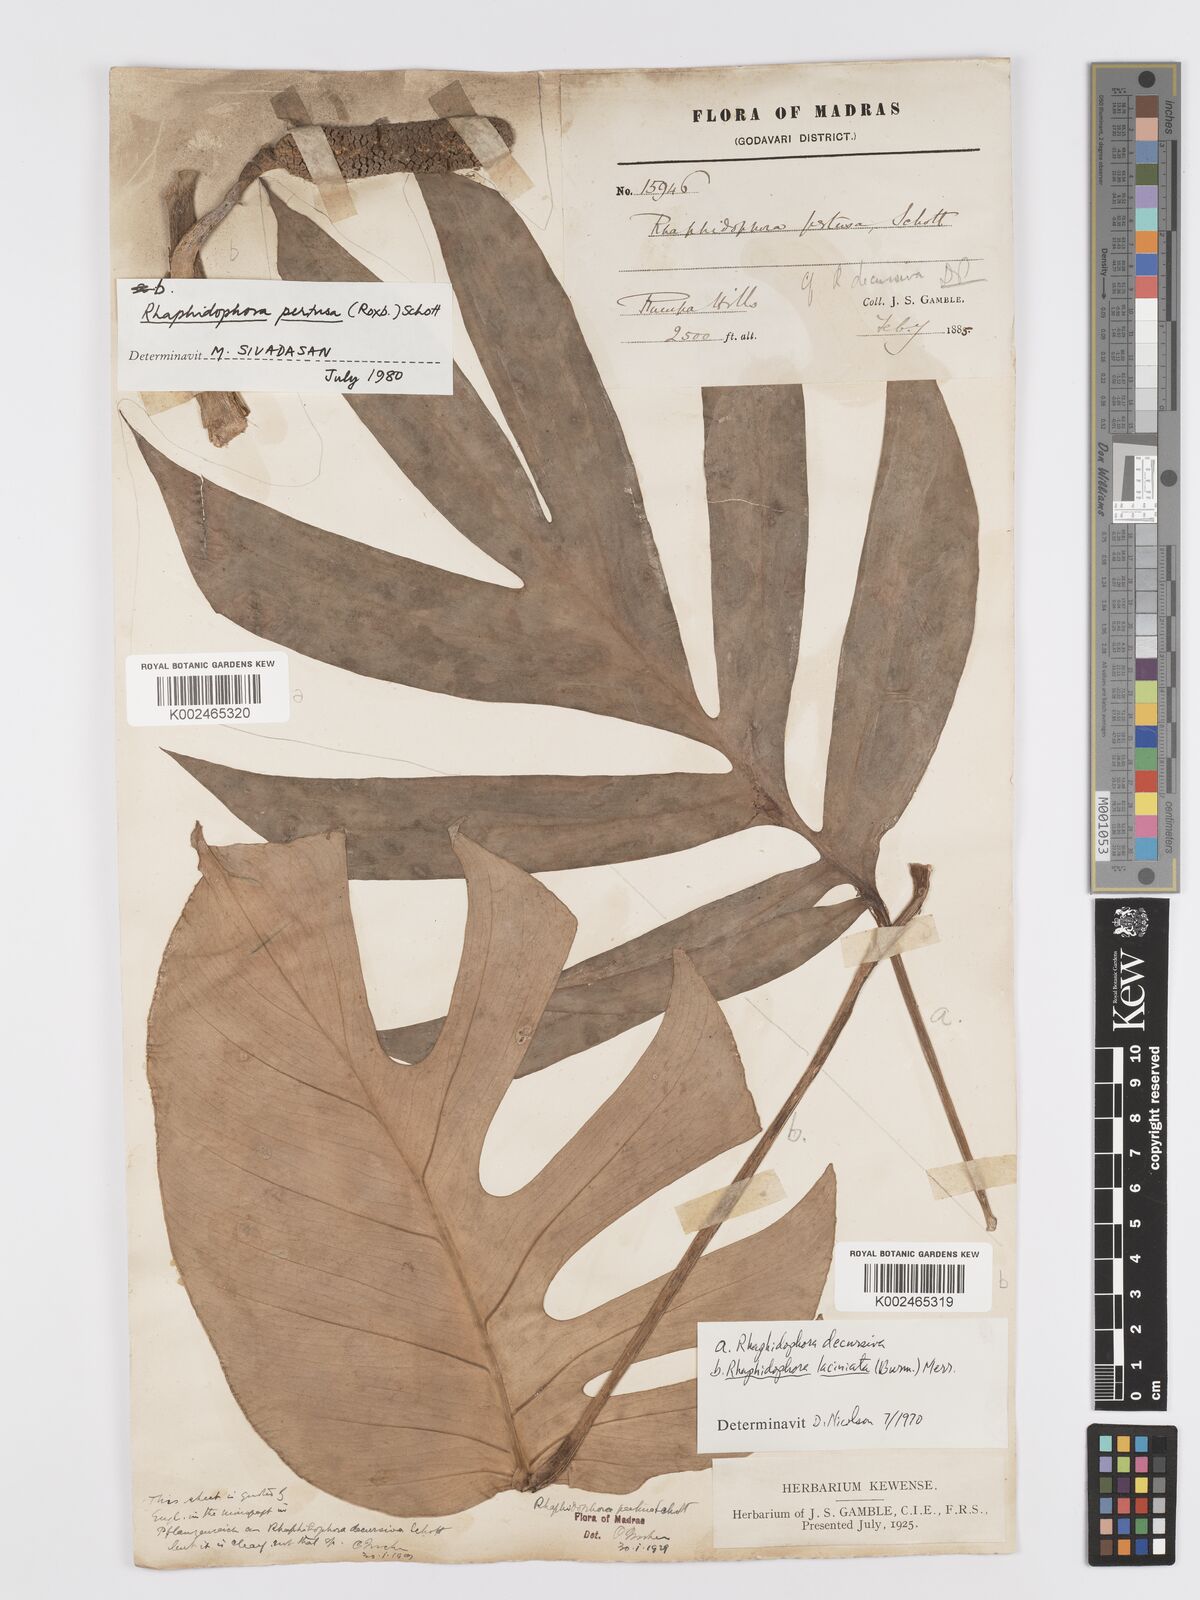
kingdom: Plantae
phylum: Tracheophyta
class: Liliopsida
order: Alismatales
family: Araceae
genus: Rhaphidophora
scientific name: Rhaphidophora pertusa
